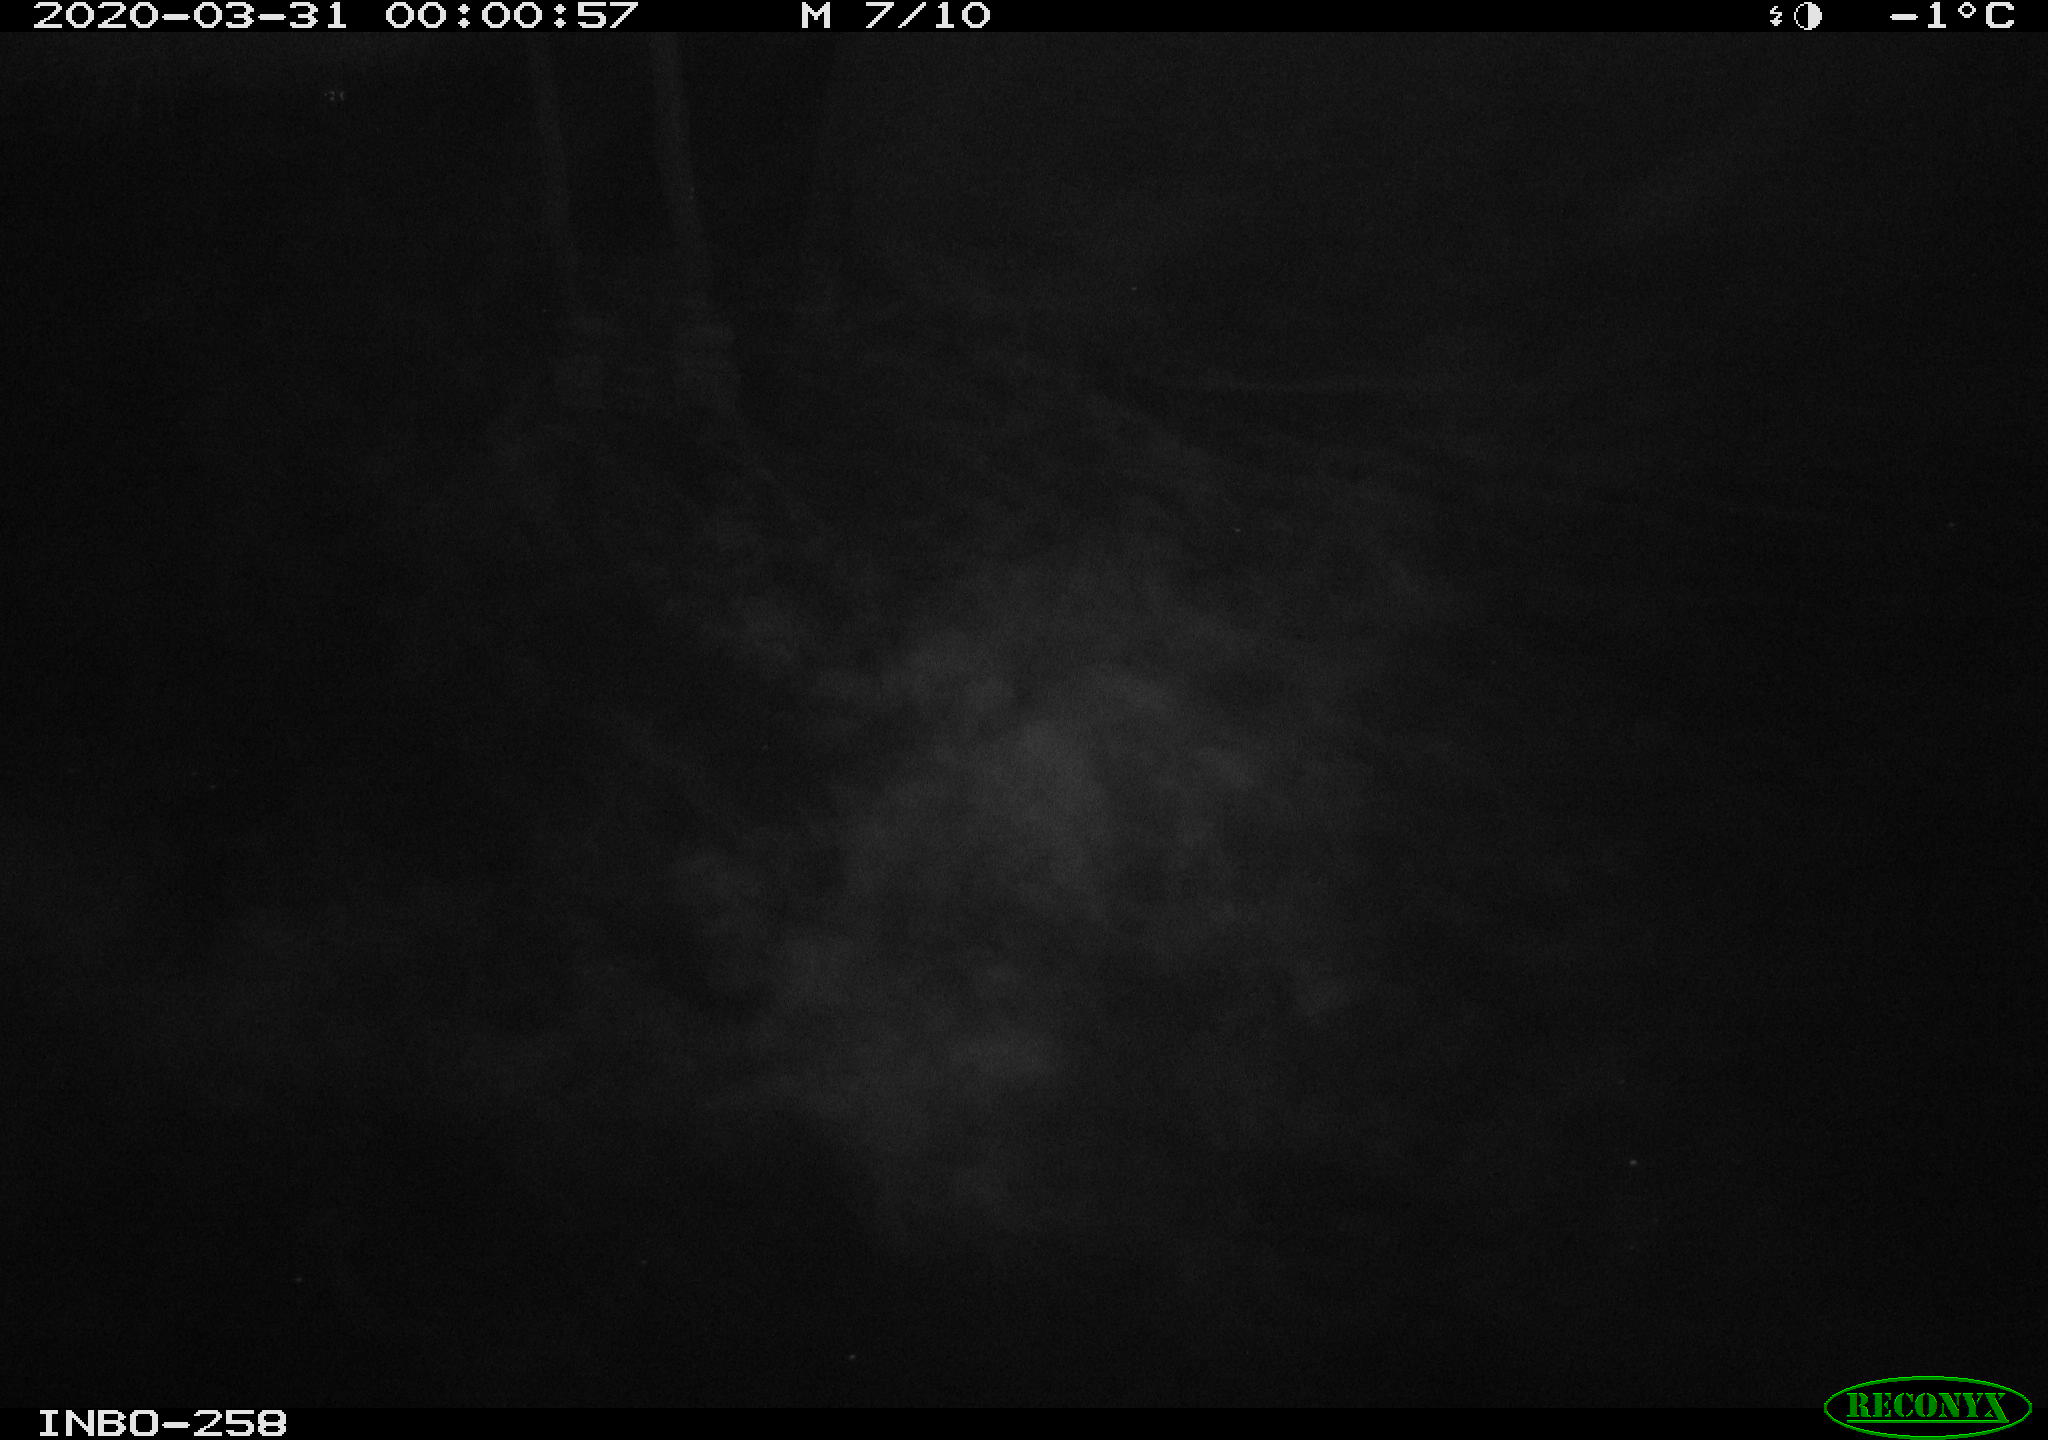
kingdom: Animalia
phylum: Chordata
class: Aves
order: Anseriformes
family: Anatidae
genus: Anas
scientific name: Anas platyrhynchos
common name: Mallard
